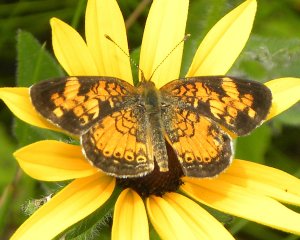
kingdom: Animalia
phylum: Arthropoda
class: Insecta
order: Lepidoptera
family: Nymphalidae
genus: Phyciodes
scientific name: Phyciodes tharos
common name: Northern Crescent
